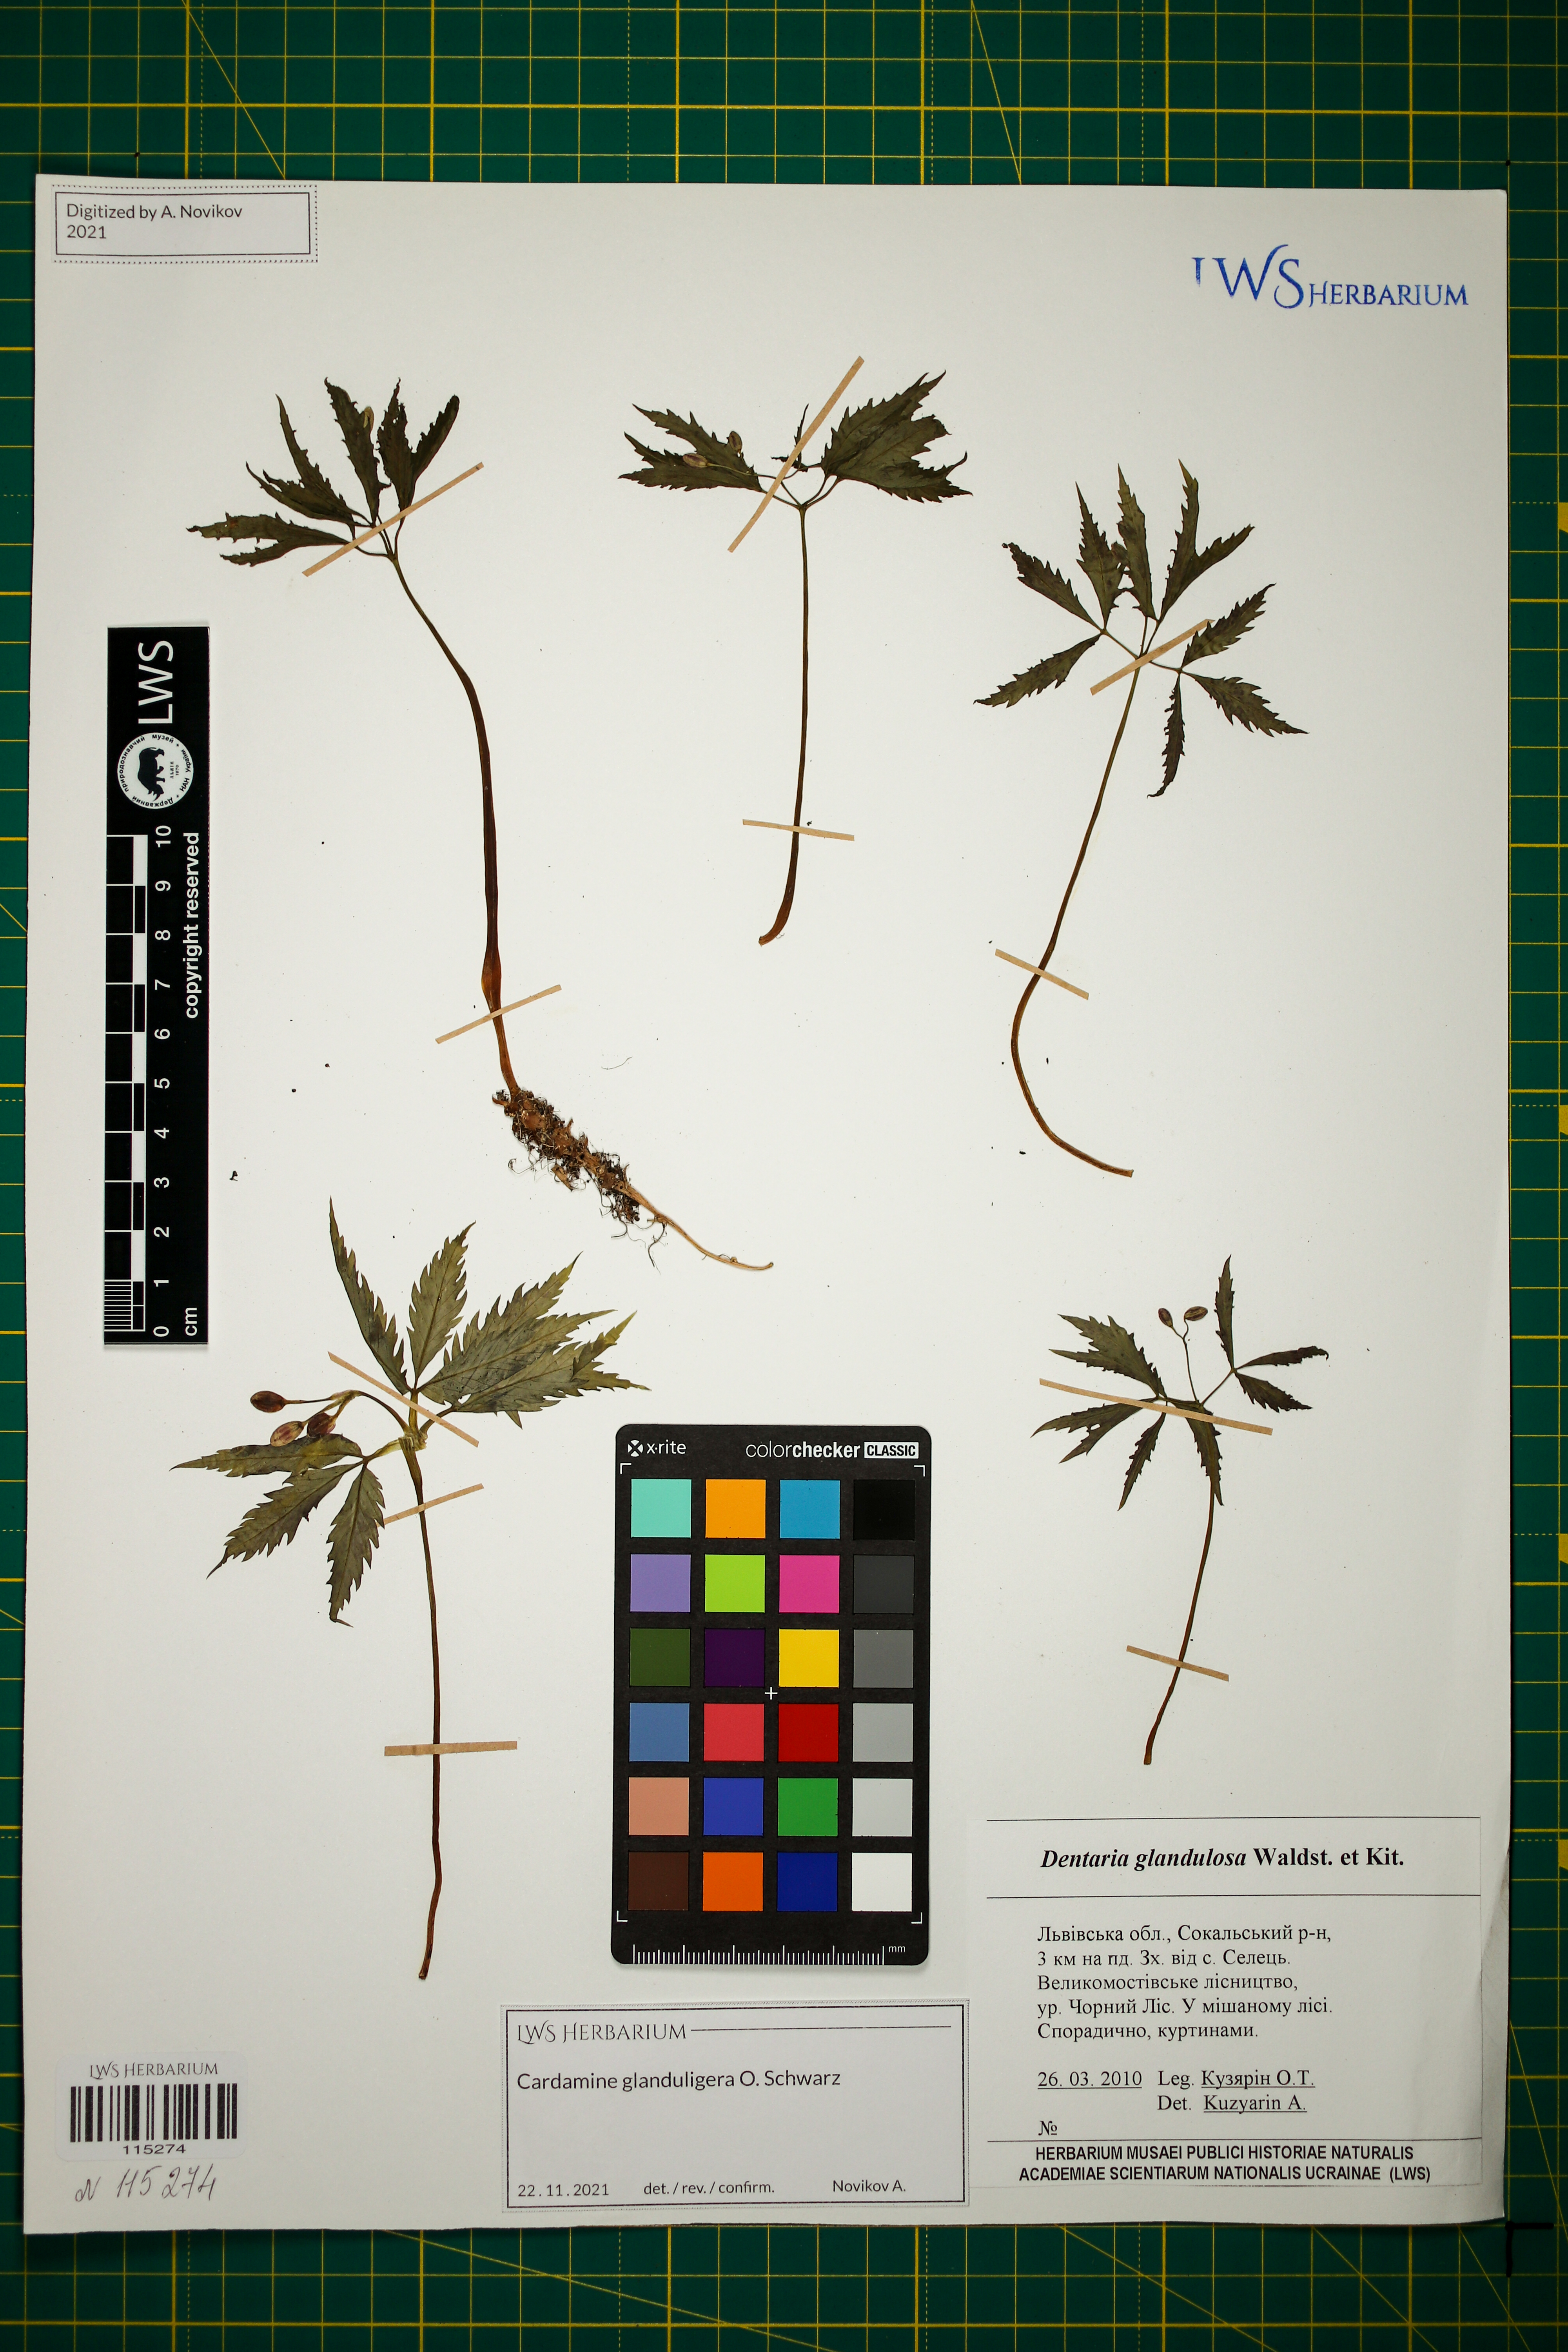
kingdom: Plantae
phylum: Tracheophyta
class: Magnoliopsida
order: Brassicales
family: Brassicaceae
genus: Cardamine
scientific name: Cardamine glanduligera
